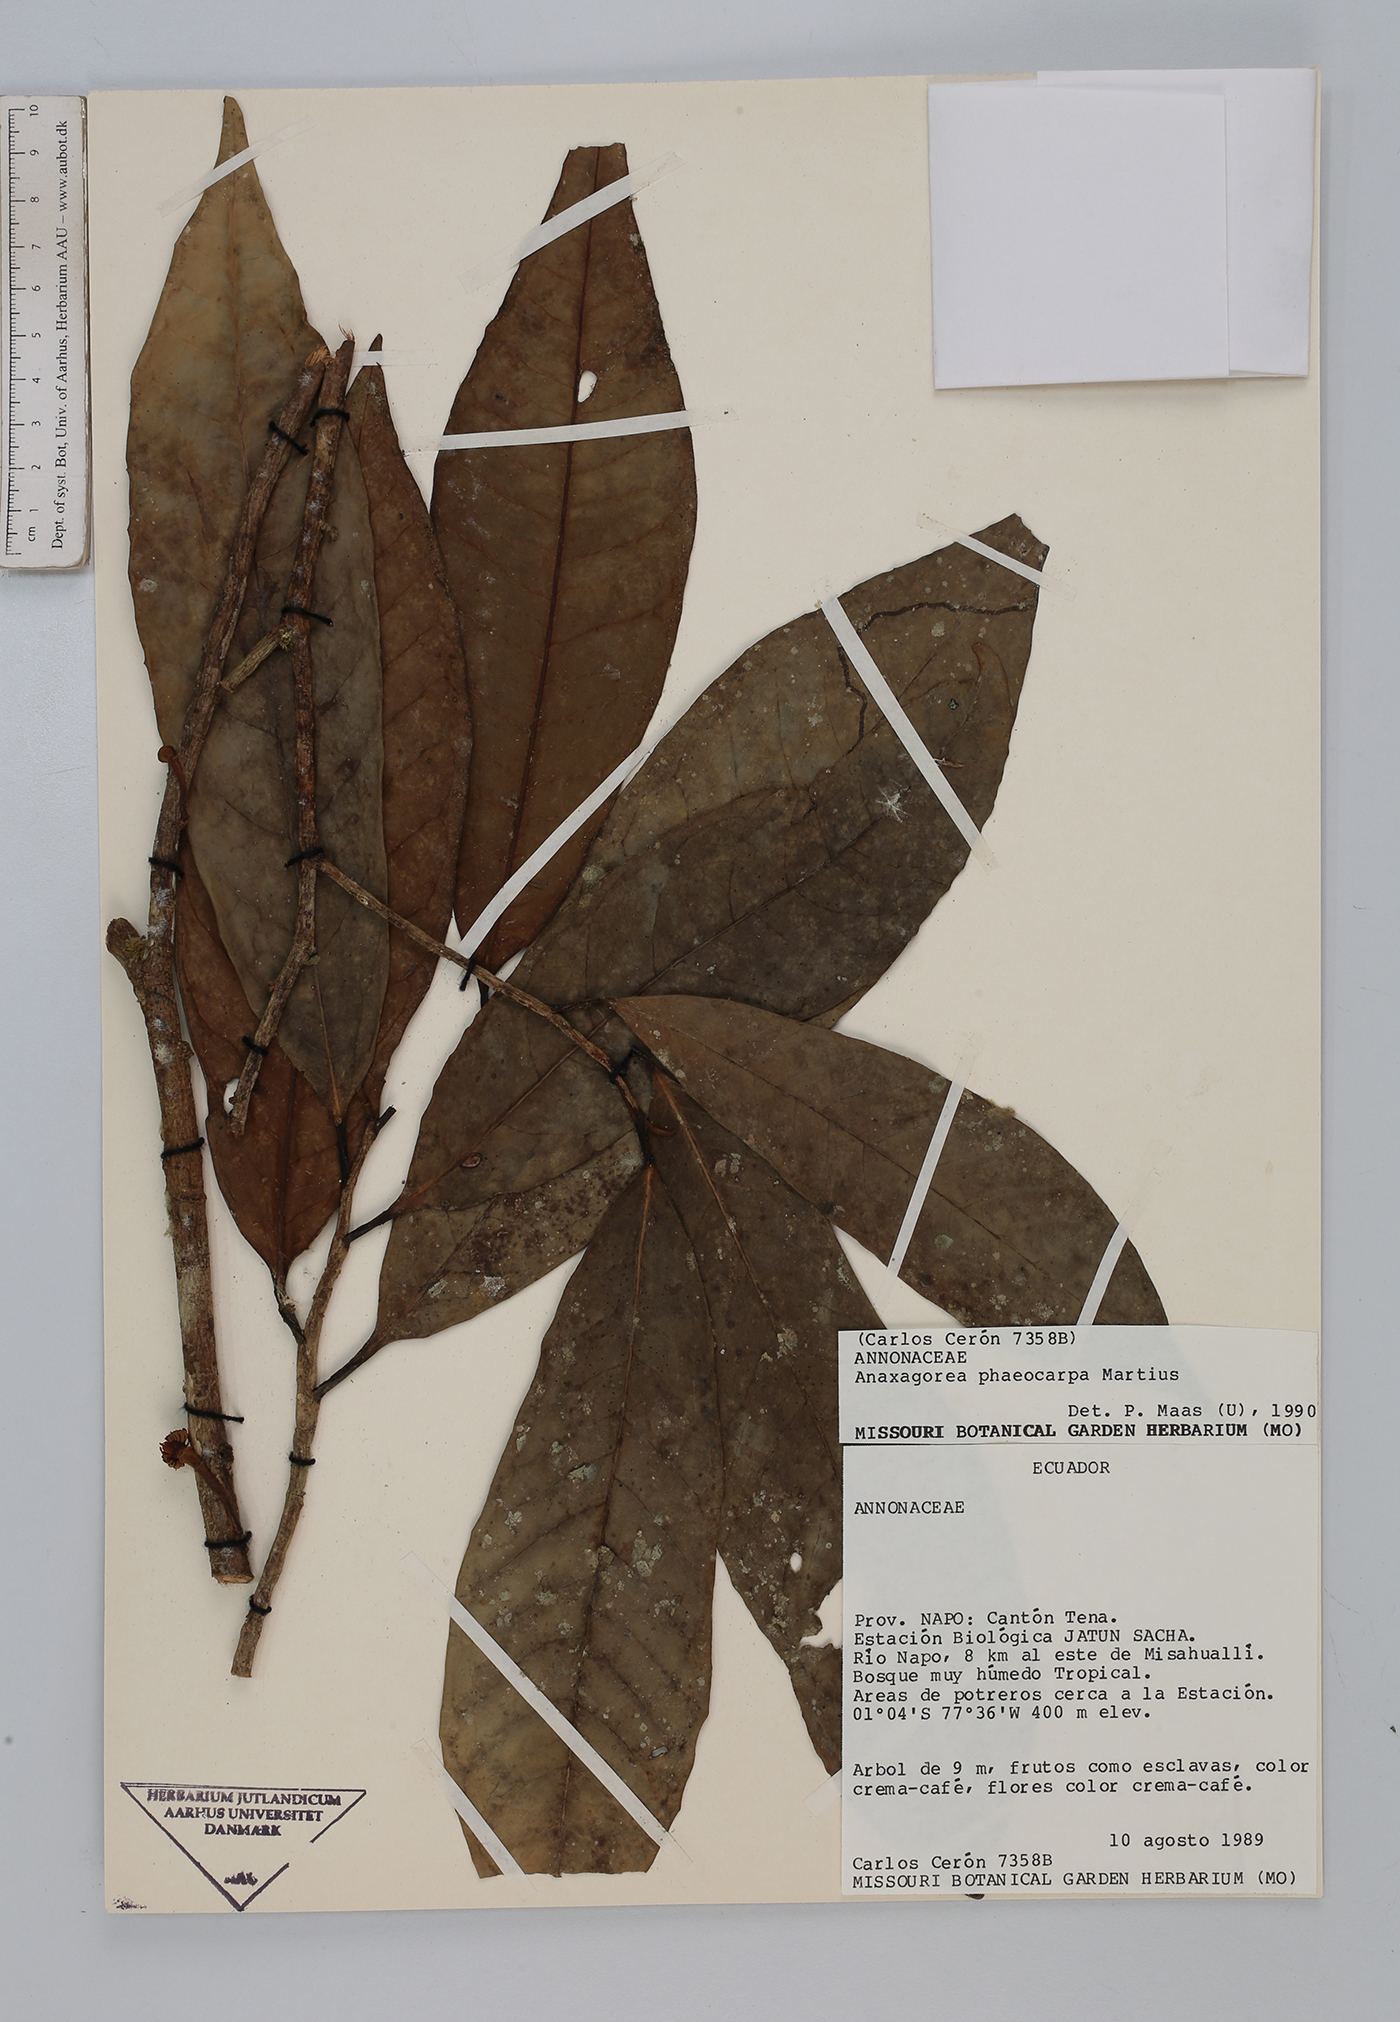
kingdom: Plantae
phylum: Tracheophyta
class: Magnoliopsida
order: Magnoliales
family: Annonaceae
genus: Anaxagorea
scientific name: Anaxagorea phaeocarpa
